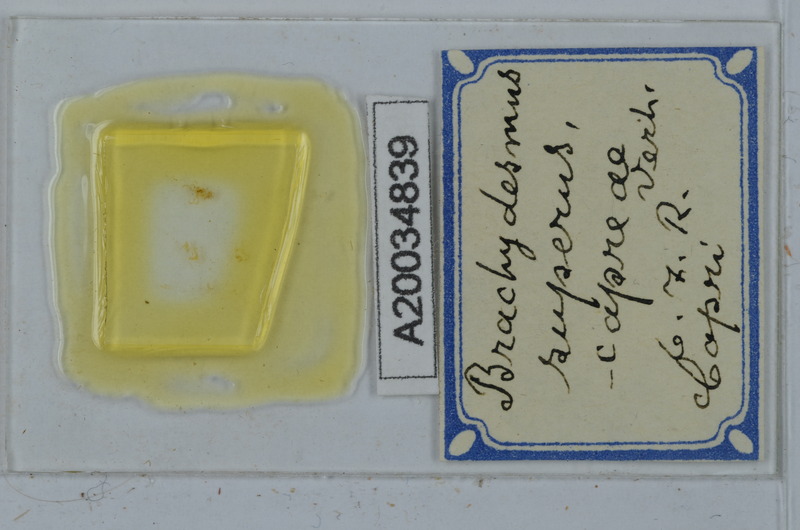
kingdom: Animalia
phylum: Arthropoda
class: Diplopoda
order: Polydesmida
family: Polydesmidae
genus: Brachydesmus
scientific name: Brachydesmus superus
